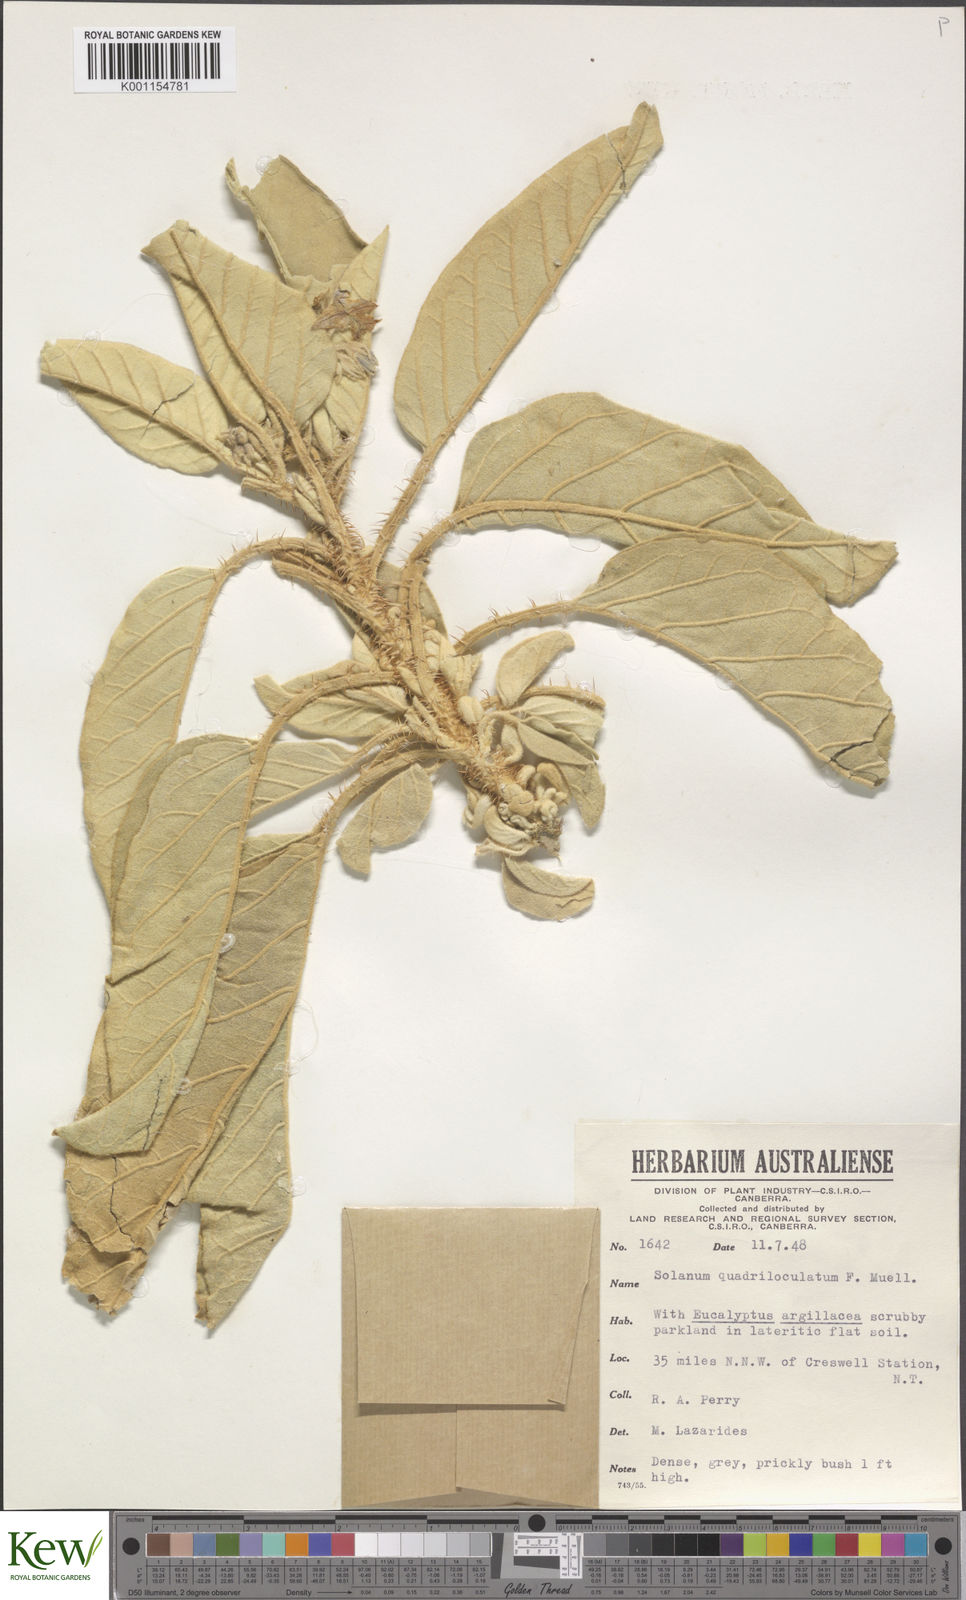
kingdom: Plantae
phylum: Tracheophyta
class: Magnoliopsida
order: Solanales
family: Solanaceae
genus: Solanum
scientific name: Solanum quadriloculatum
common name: Wild tomato
